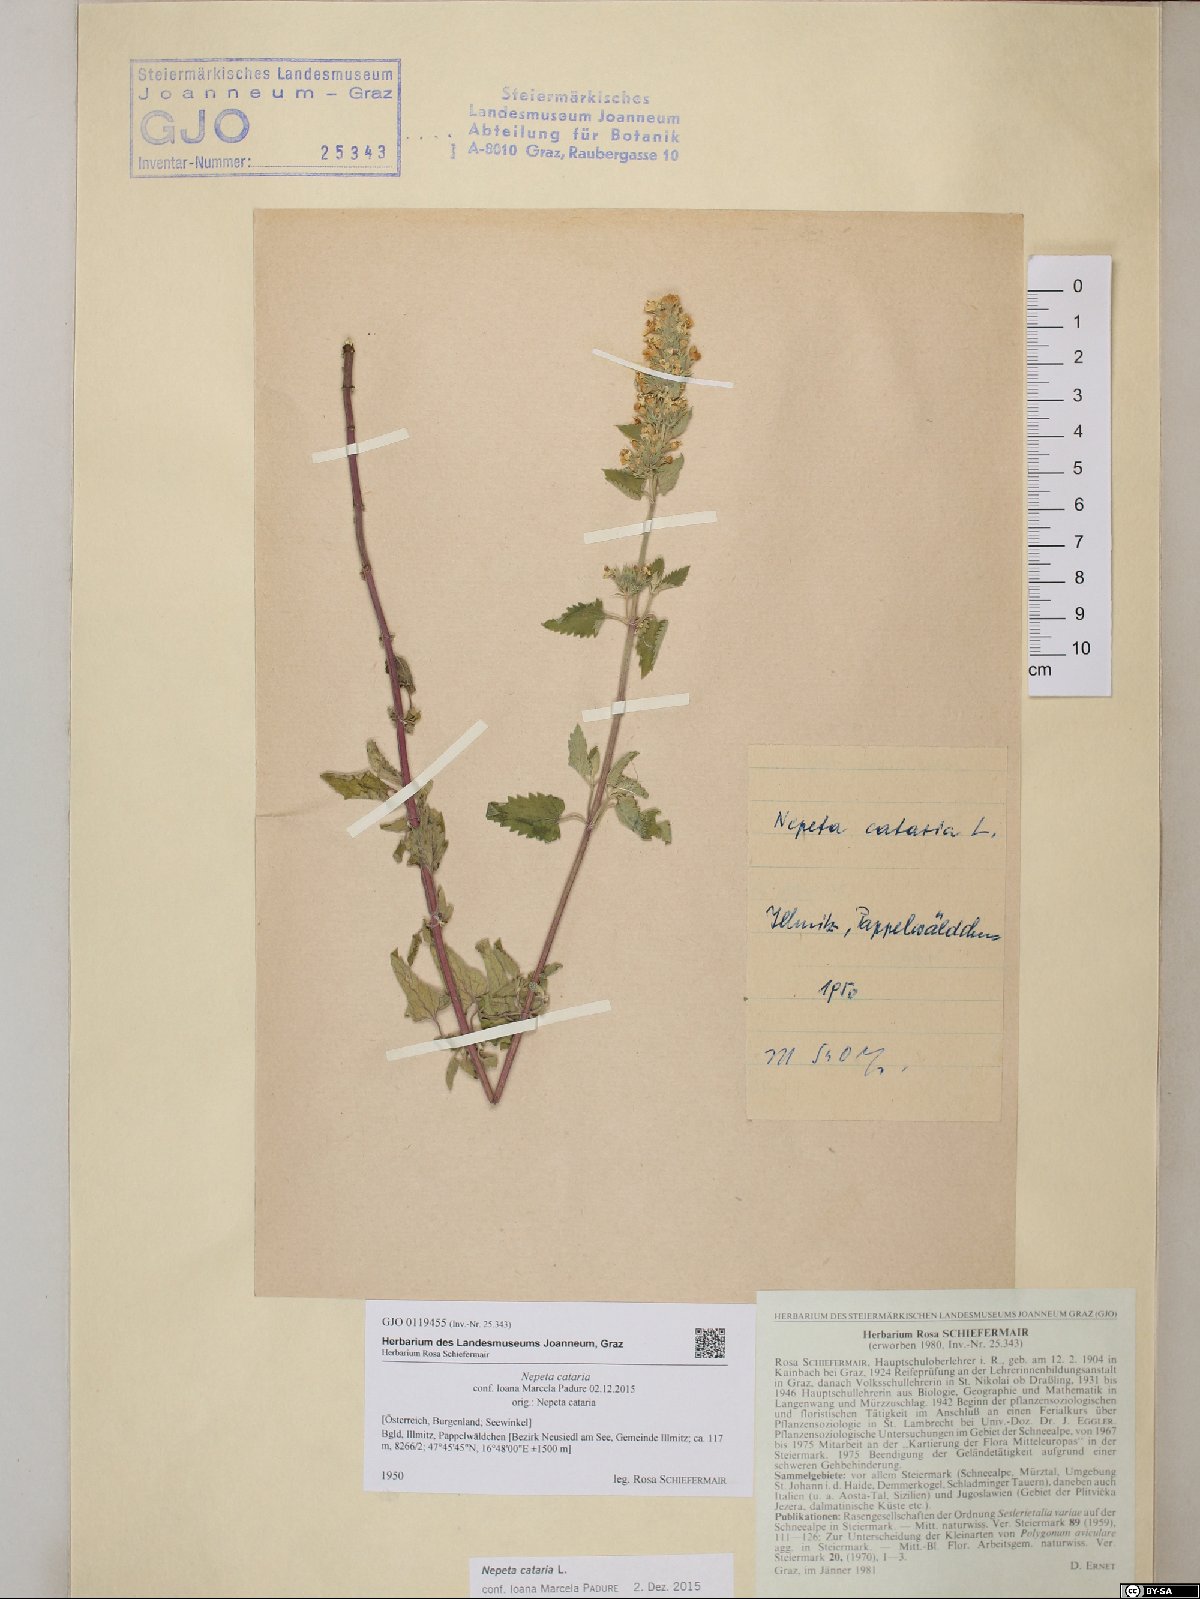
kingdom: Plantae
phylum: Tracheophyta
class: Magnoliopsida
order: Lamiales
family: Lamiaceae
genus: Nepeta
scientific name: Nepeta cataria
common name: Catnip
